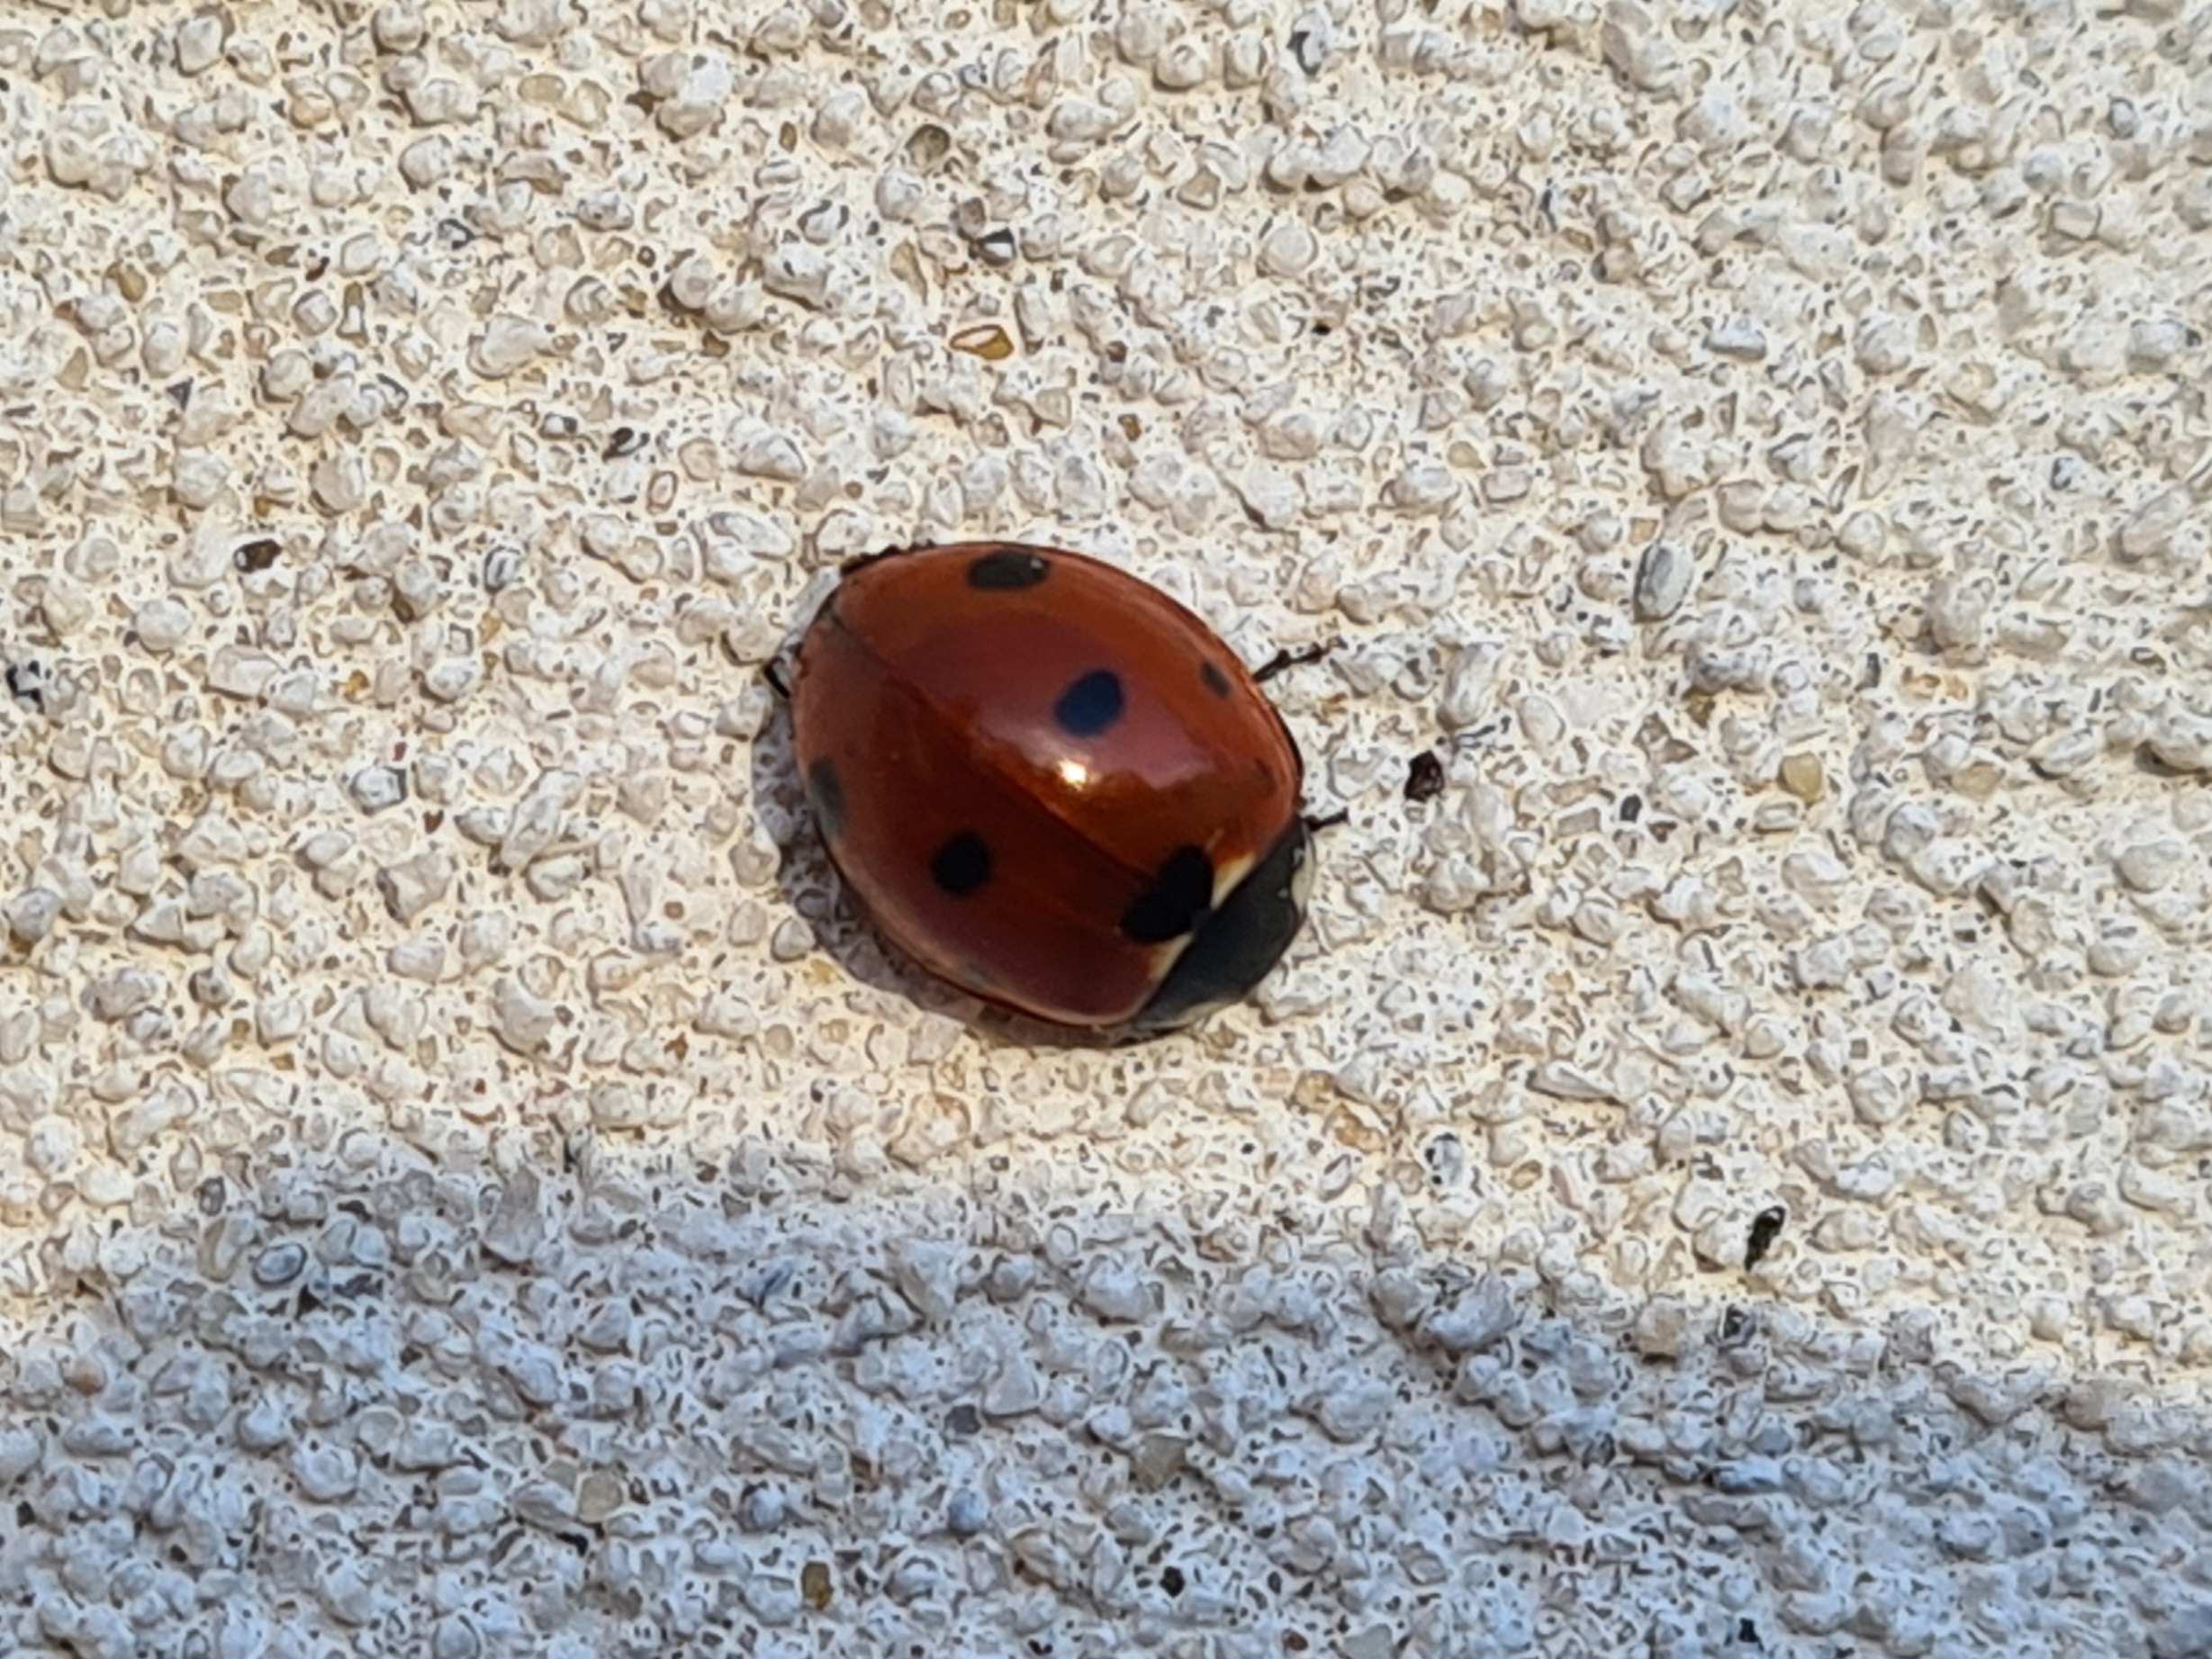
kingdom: Animalia
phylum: Arthropoda
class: Insecta
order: Coleoptera
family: Coccinellidae
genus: Coccinella
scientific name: Coccinella septempunctata
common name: Syvplettet mariehøne
